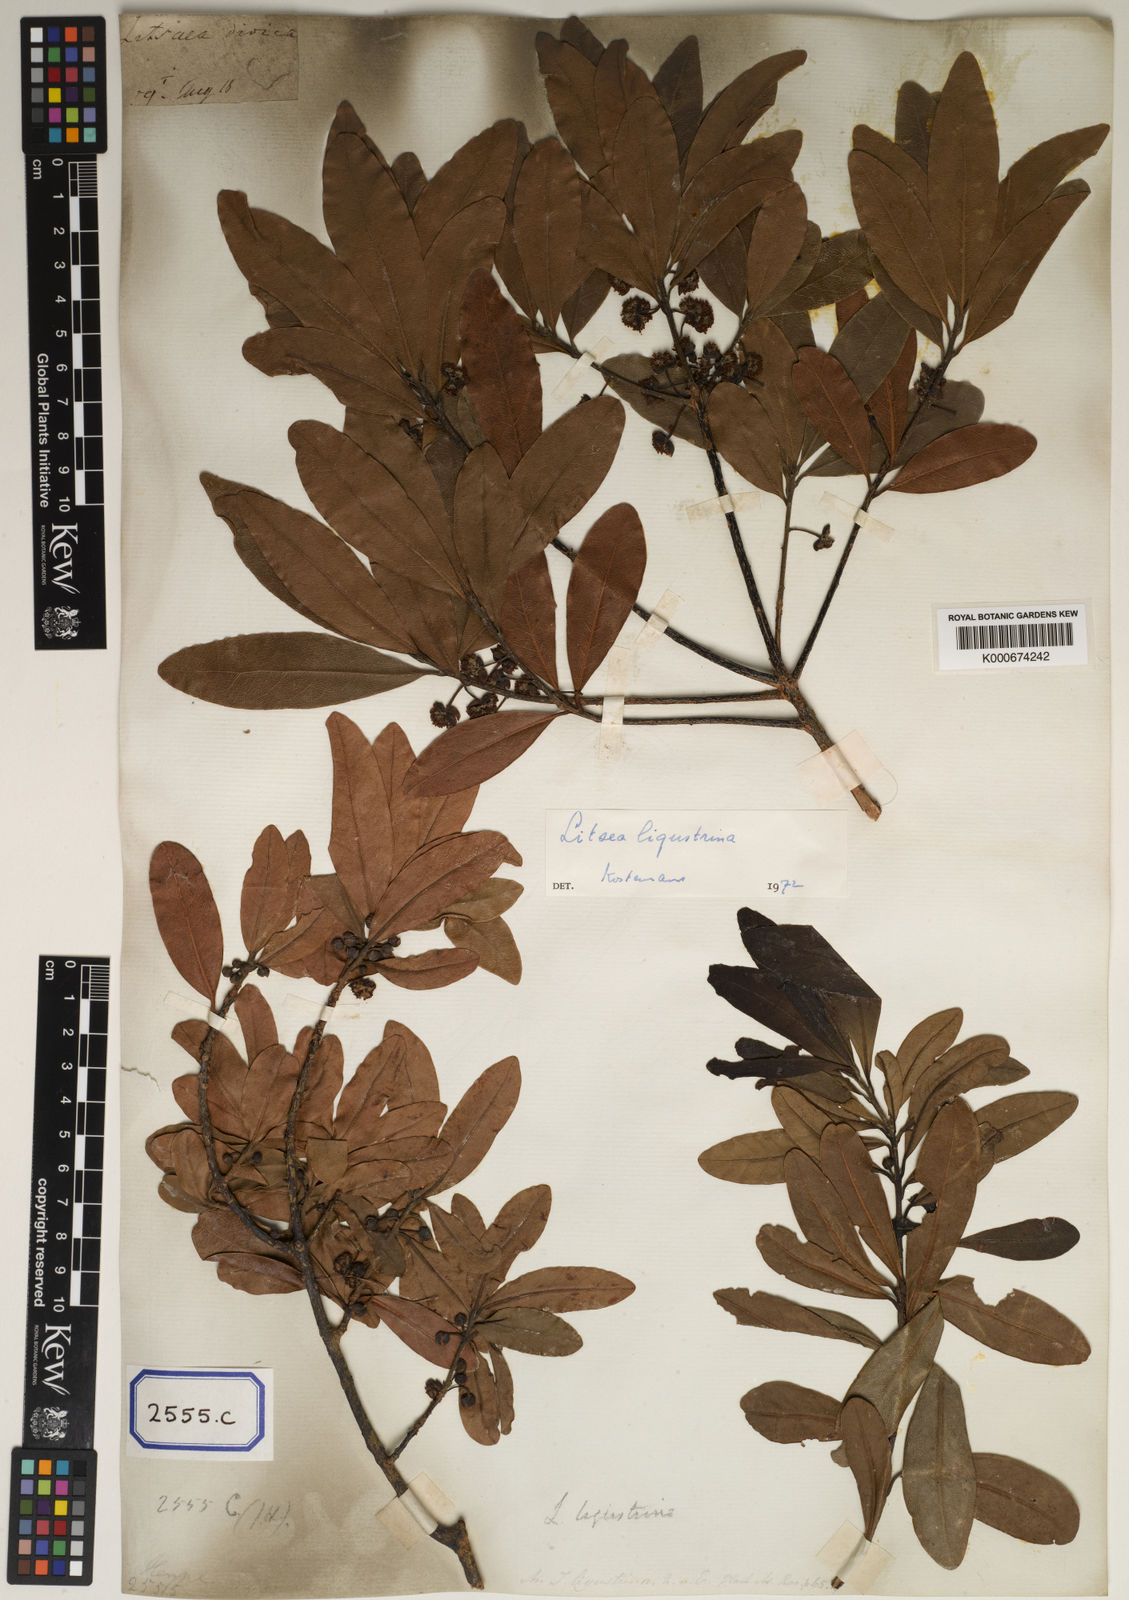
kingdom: Plantae
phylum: Tracheophyta
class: Magnoliopsida
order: Laurales
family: Lauraceae
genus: Litsea
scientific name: Litsea
